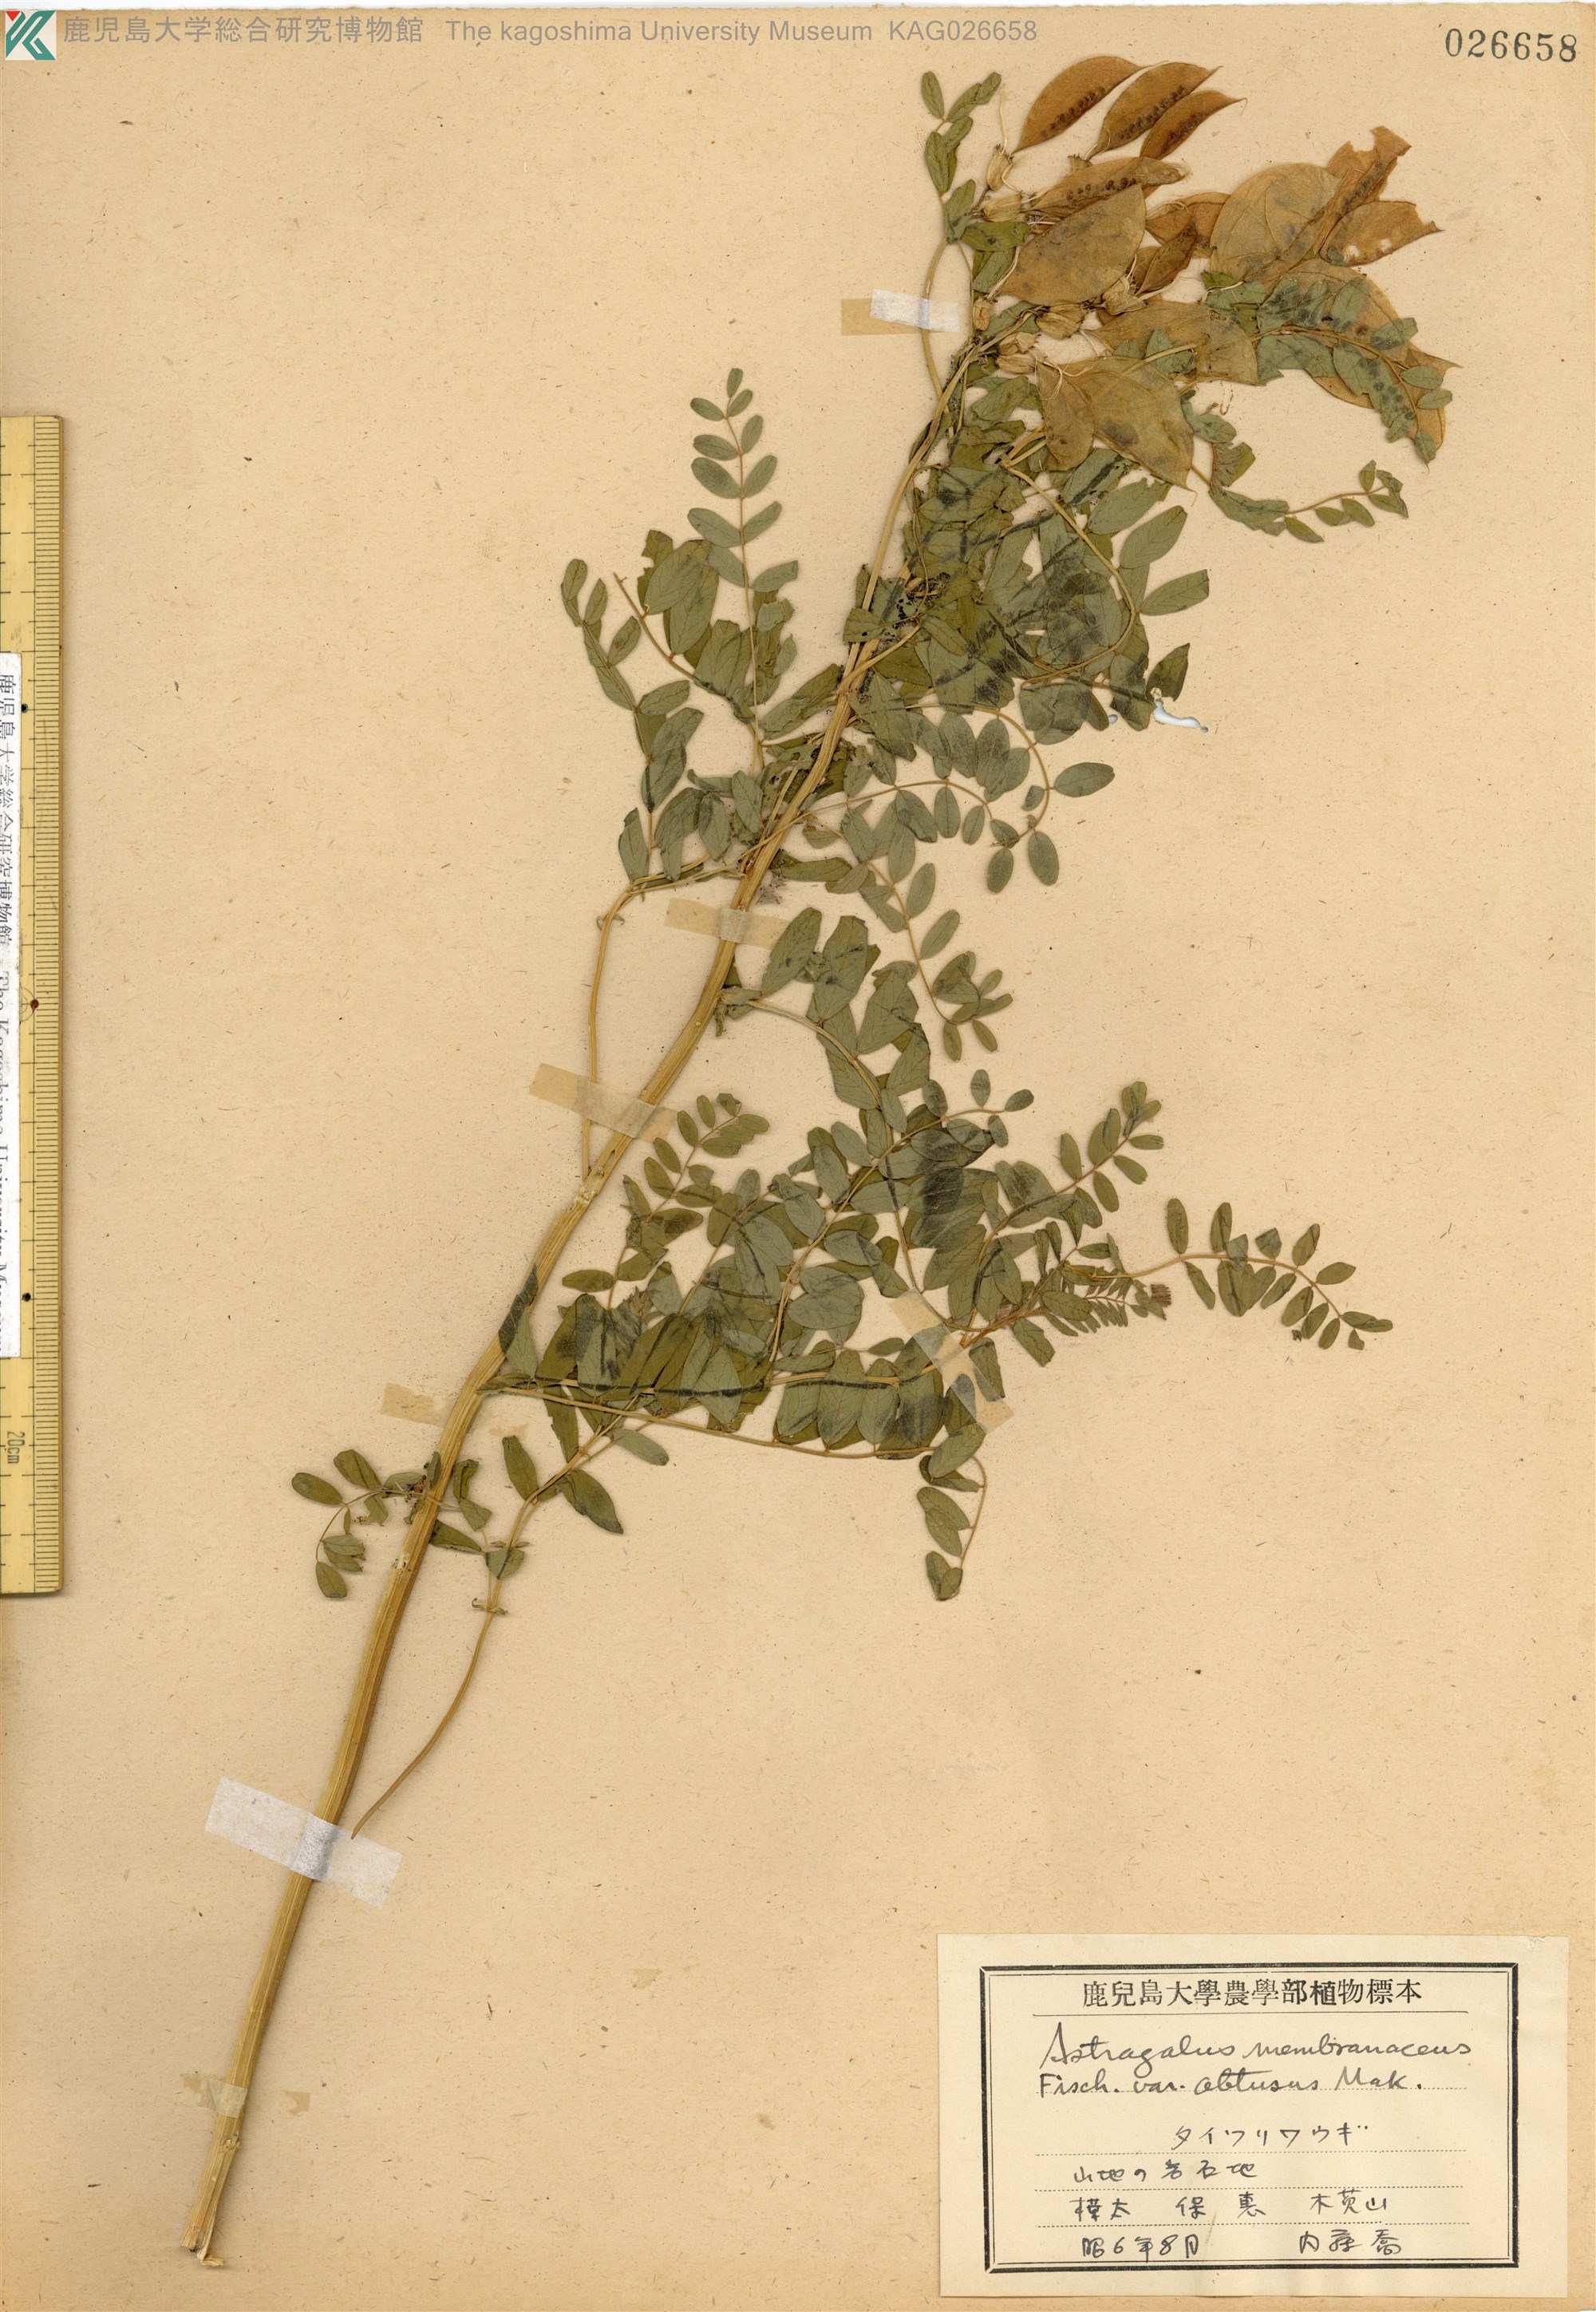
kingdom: Plantae
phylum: Tracheophyta
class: Magnoliopsida
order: Fabales
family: Fabaceae
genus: Astragalus
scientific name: Astragalus trimestris
